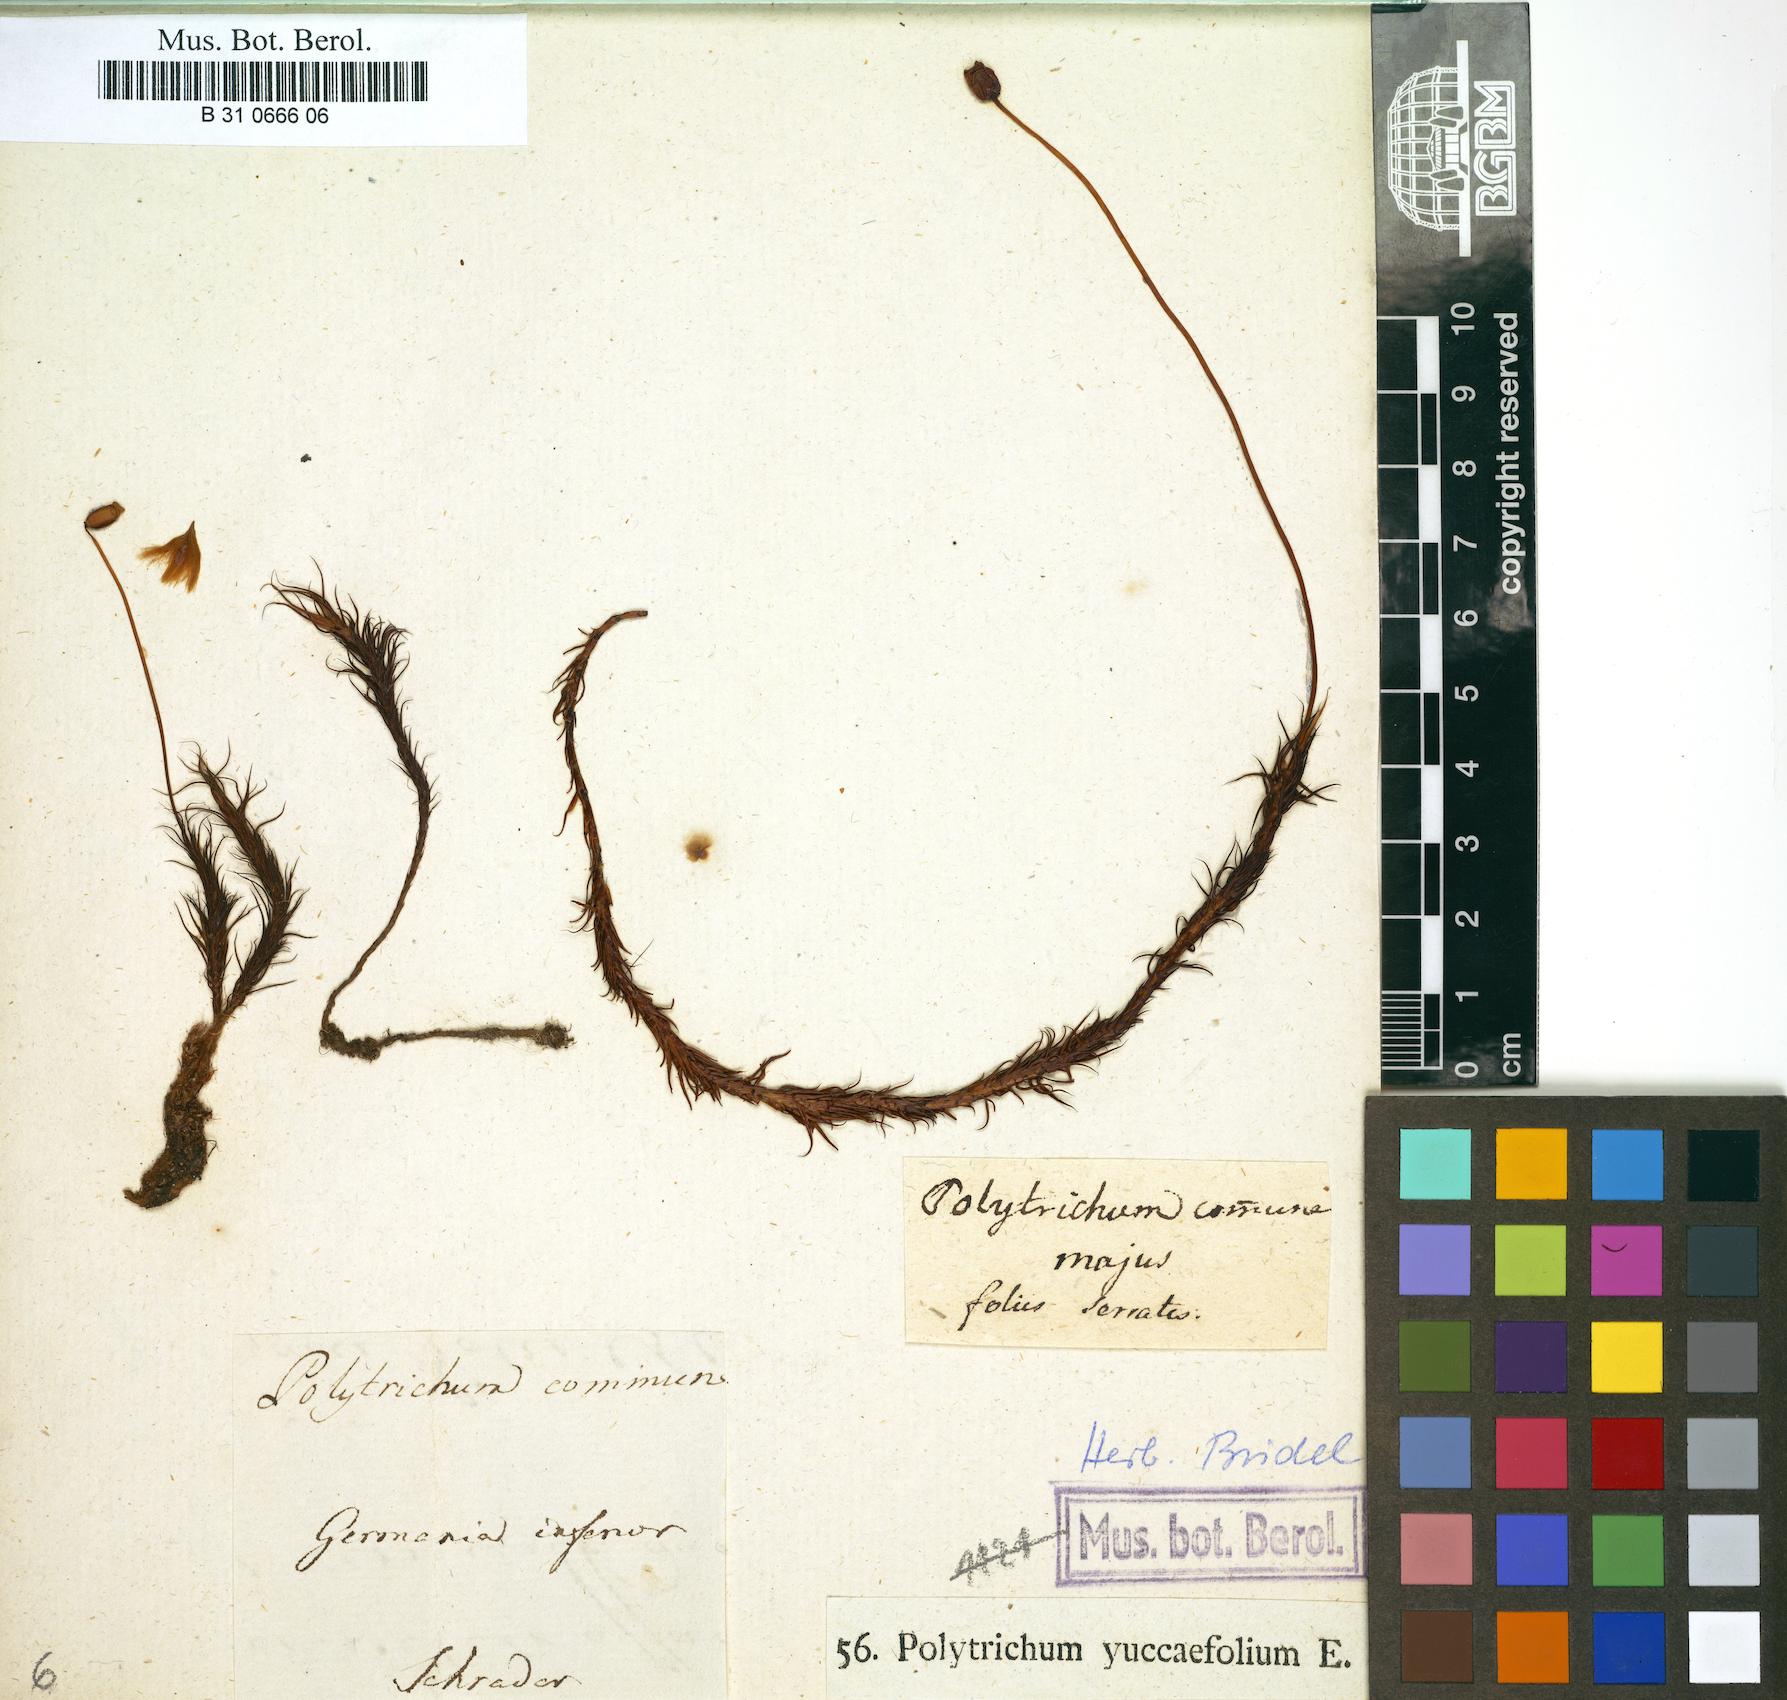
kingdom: Plantae
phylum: Bryophyta
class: Polytrichopsida
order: Polytrichales
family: Polytrichaceae
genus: Polytrichum
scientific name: Polytrichum commune
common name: Common haircap
